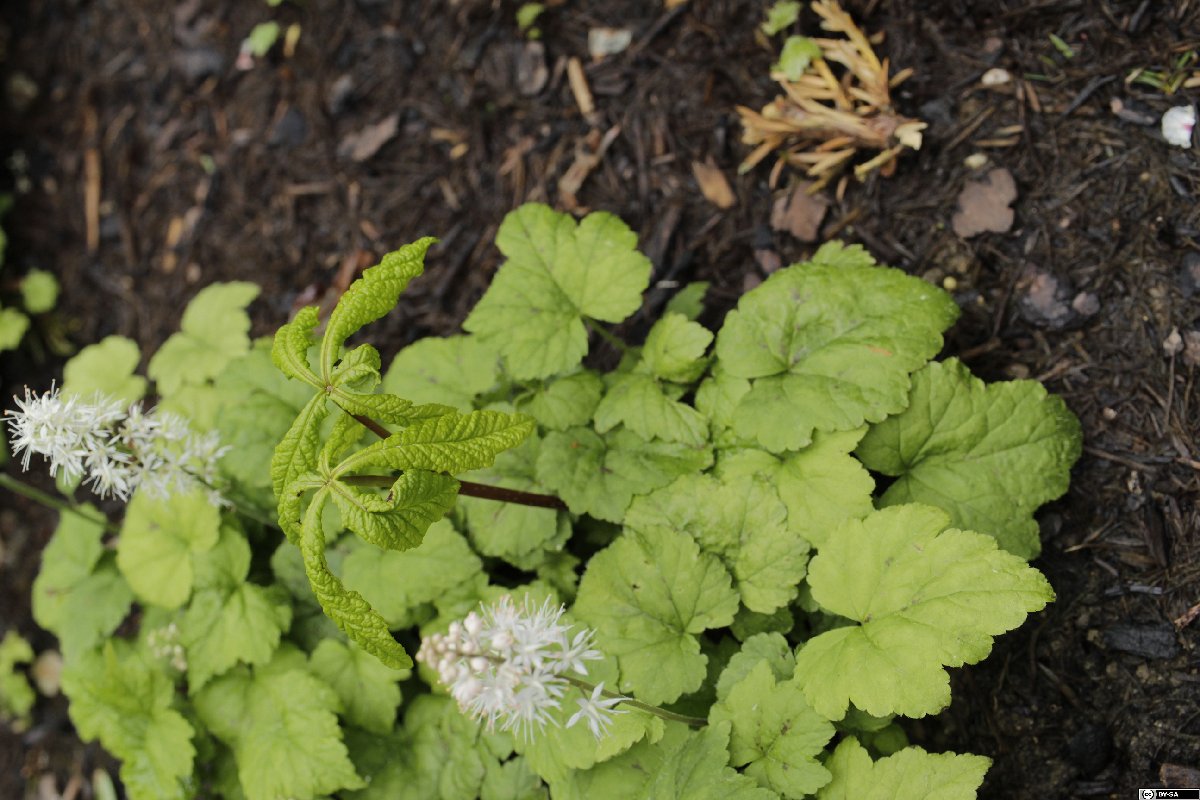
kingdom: Plantae
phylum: Tracheophyta
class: Magnoliopsida
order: Sapindales
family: Sapindaceae
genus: Aesculus
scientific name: Aesculus hippocastanum
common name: Horse-chestnut
